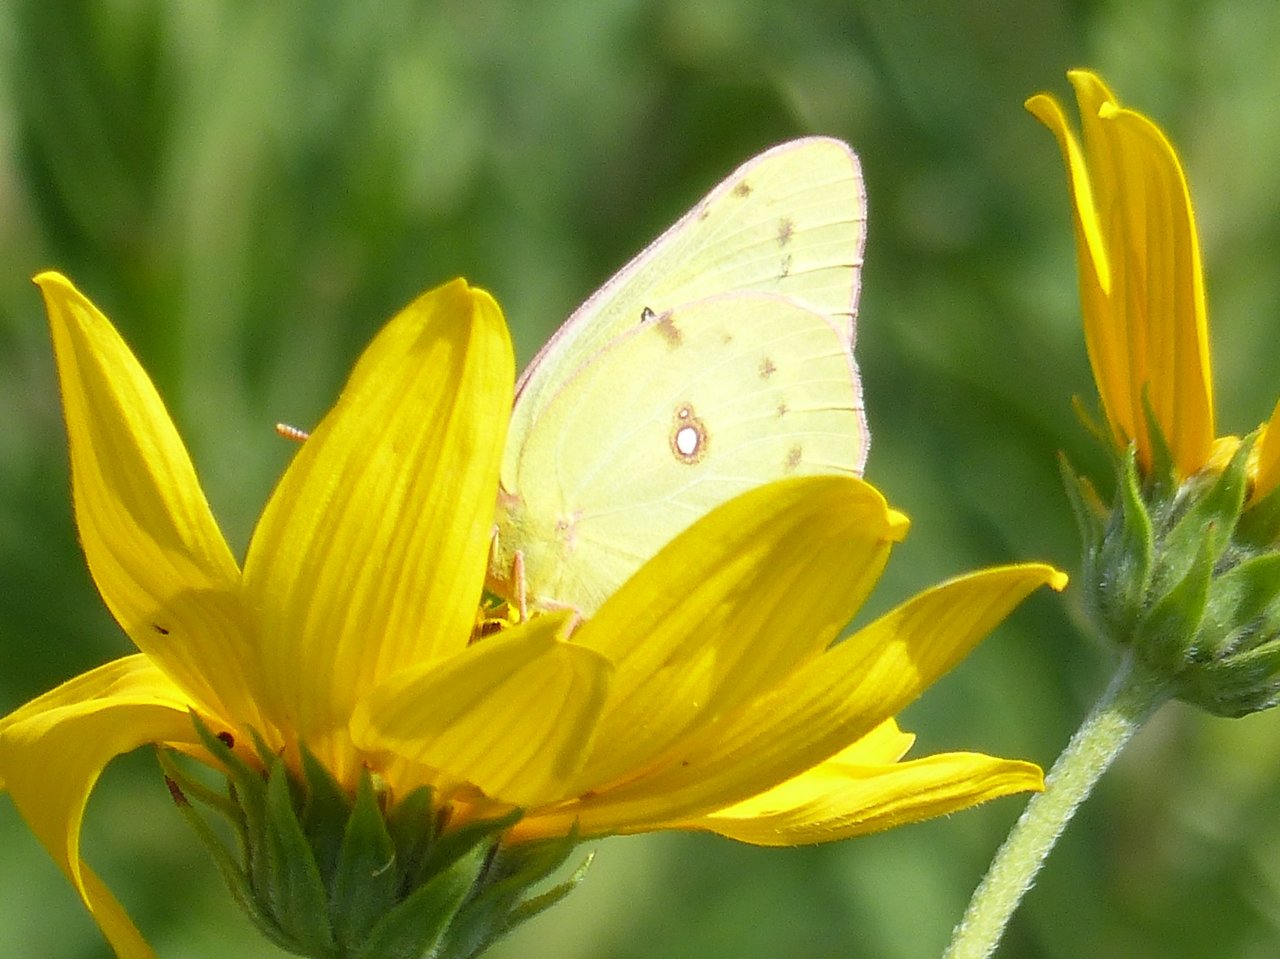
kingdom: Animalia
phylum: Arthropoda
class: Insecta
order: Lepidoptera
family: Pieridae
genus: Colias
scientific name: Colias philodice
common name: Clouded Sulphur
